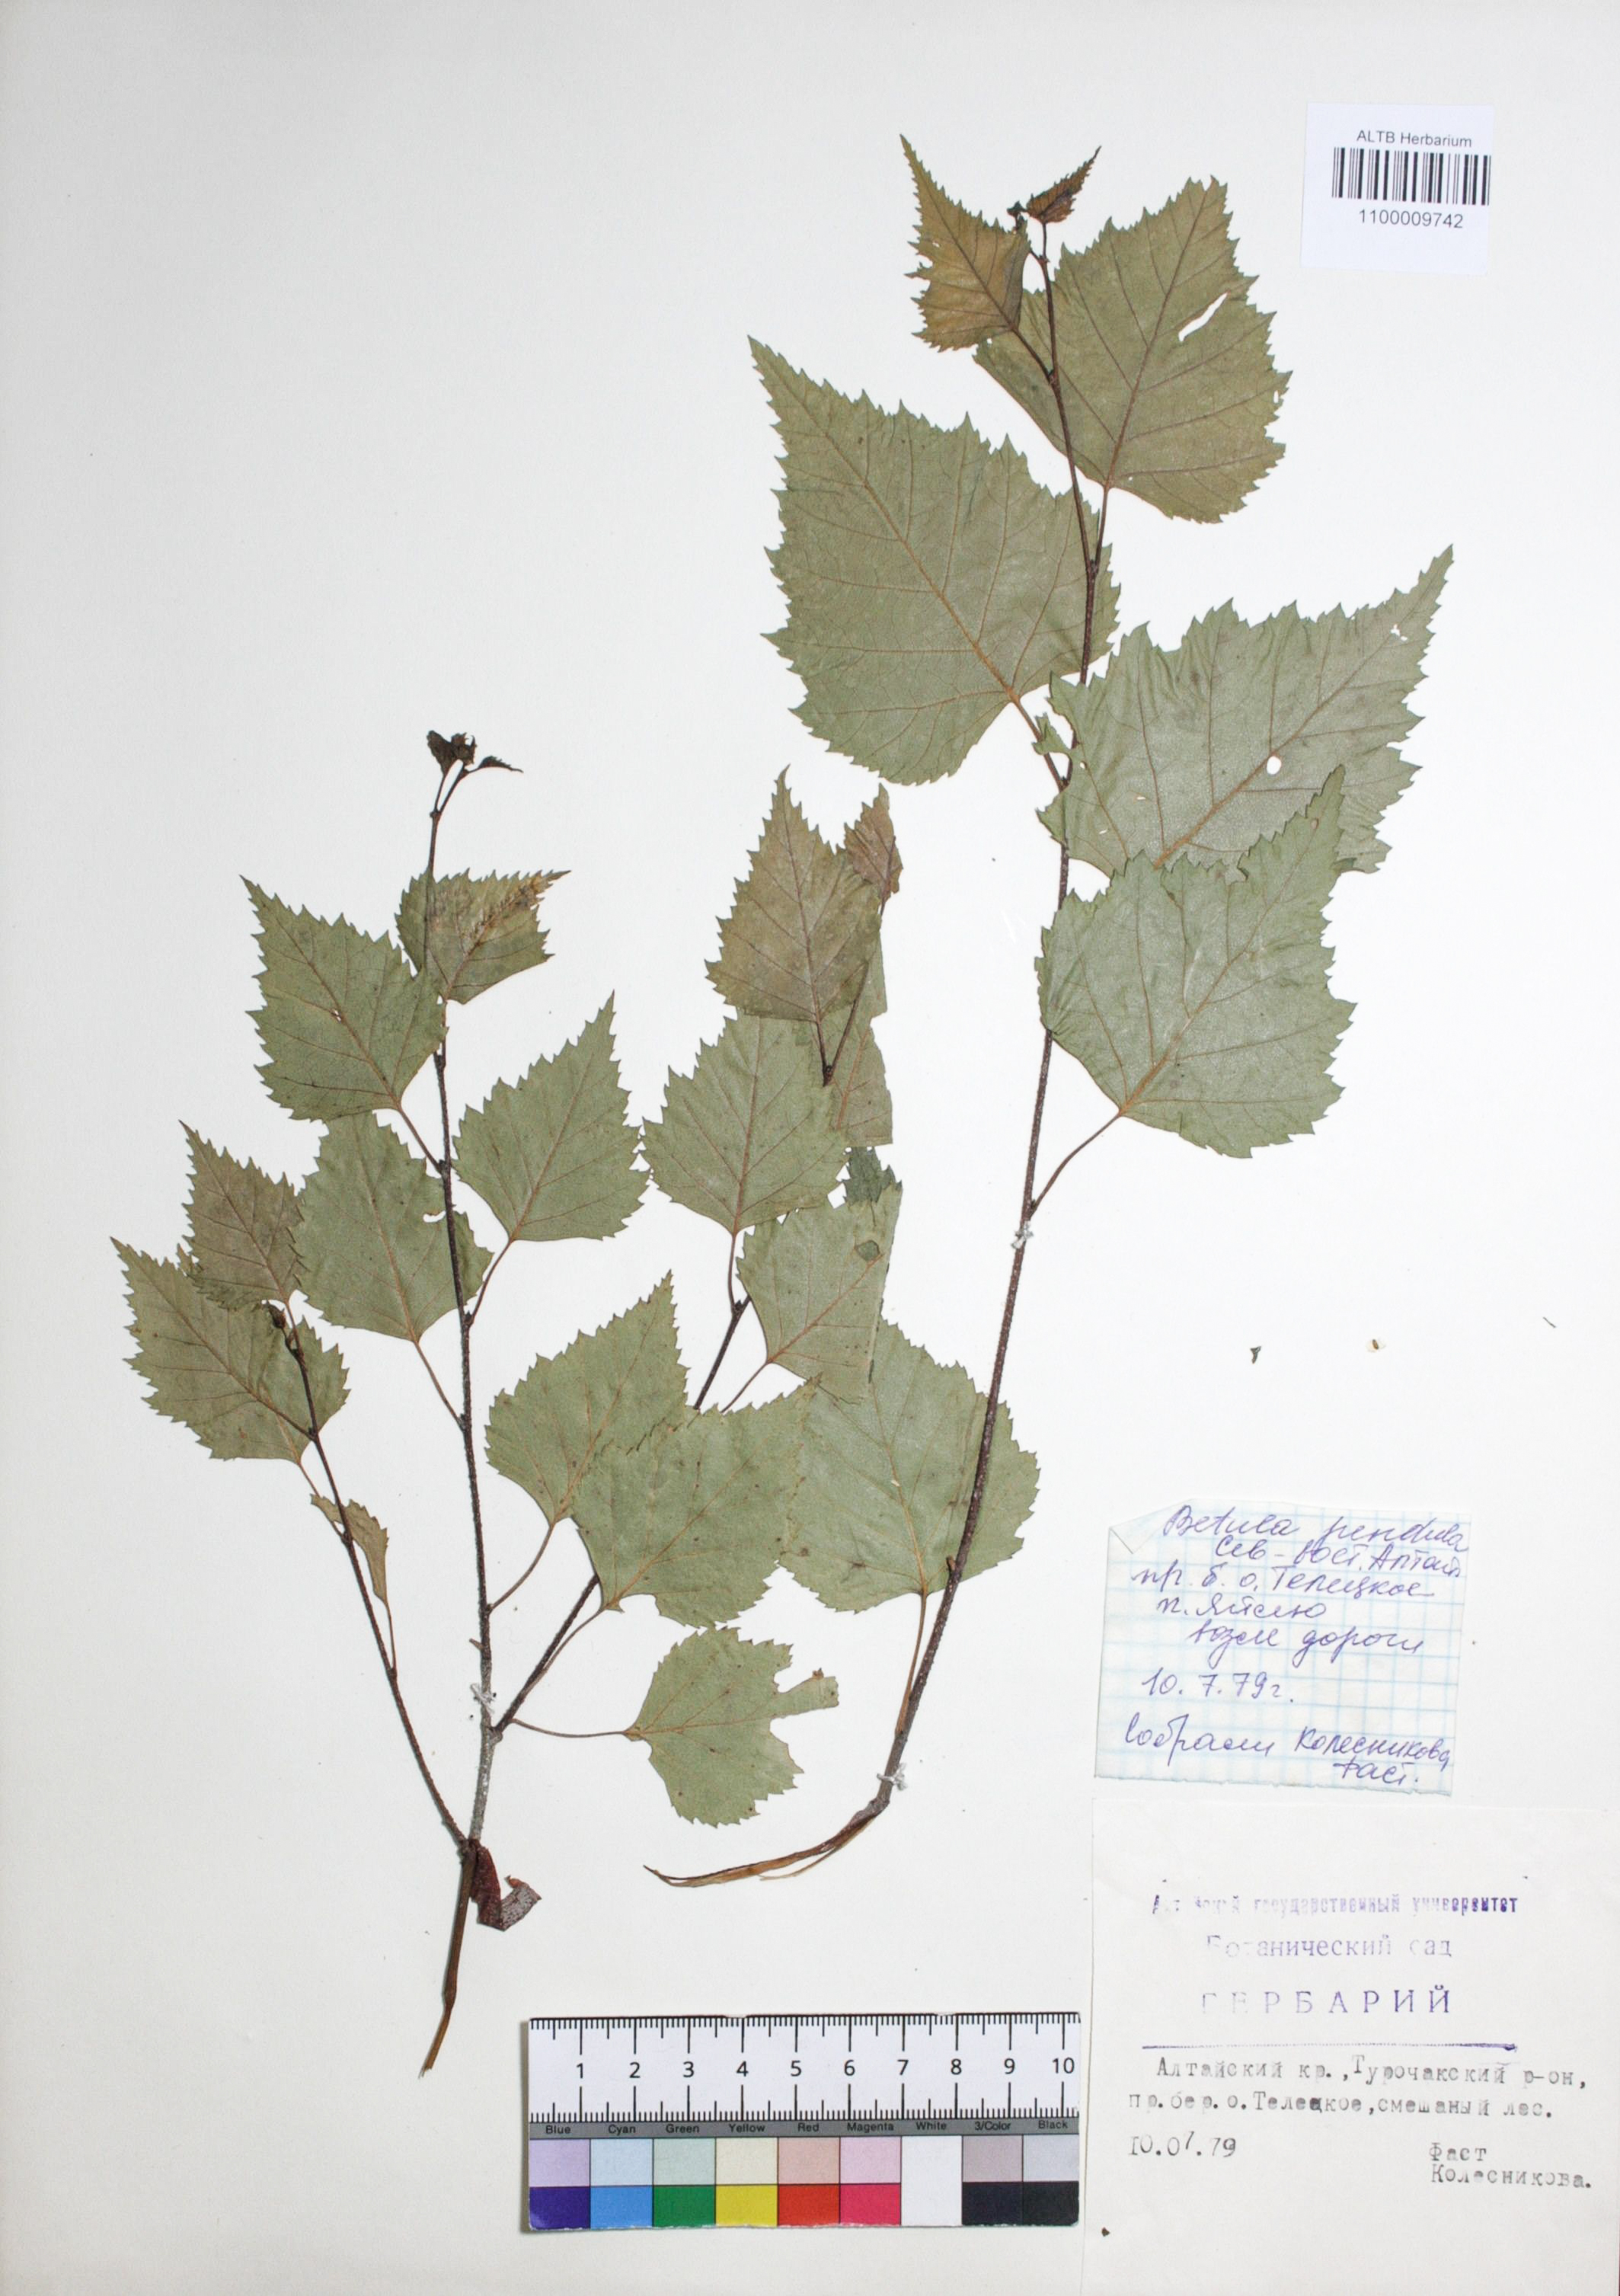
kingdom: Plantae
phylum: Tracheophyta
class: Magnoliopsida
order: Fagales
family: Betulaceae
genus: Betula
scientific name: Betula pendula
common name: Silver birch
